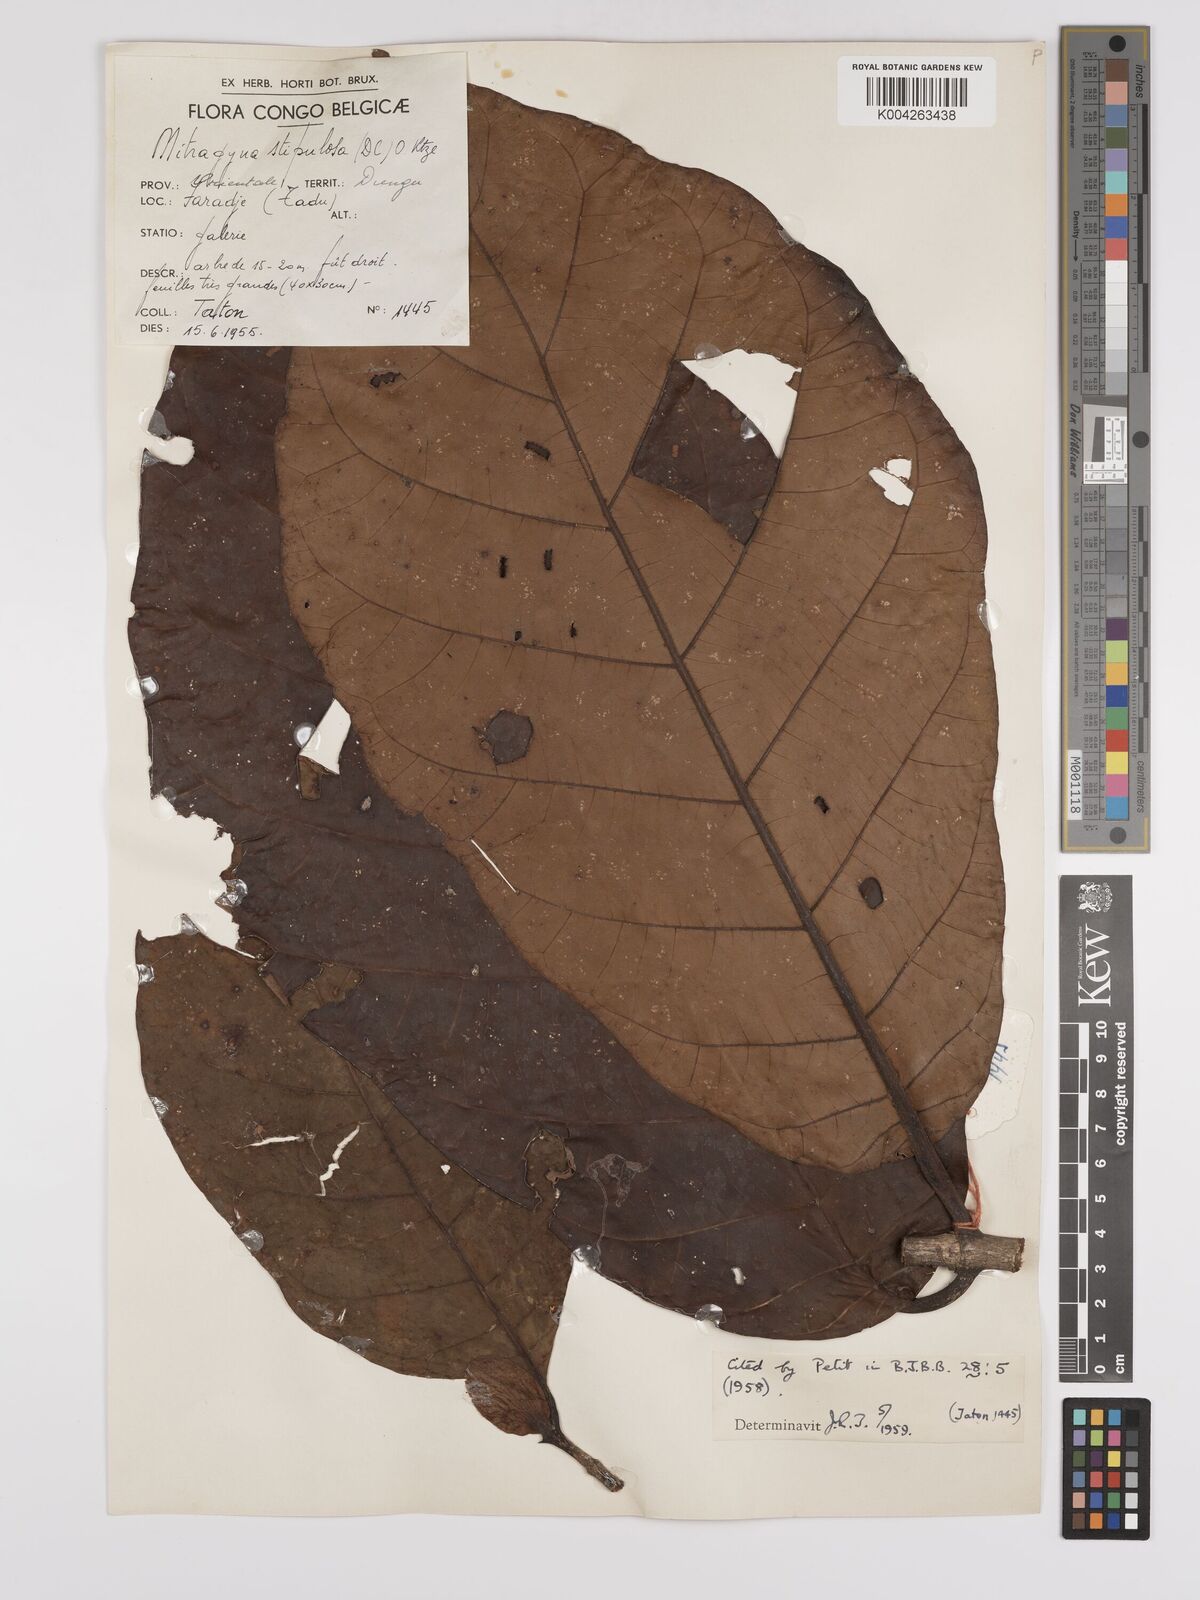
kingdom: Plantae
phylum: Tracheophyta
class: Magnoliopsida
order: Gentianales
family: Rubiaceae
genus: Mitragyna
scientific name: Mitragyna stipulosa
